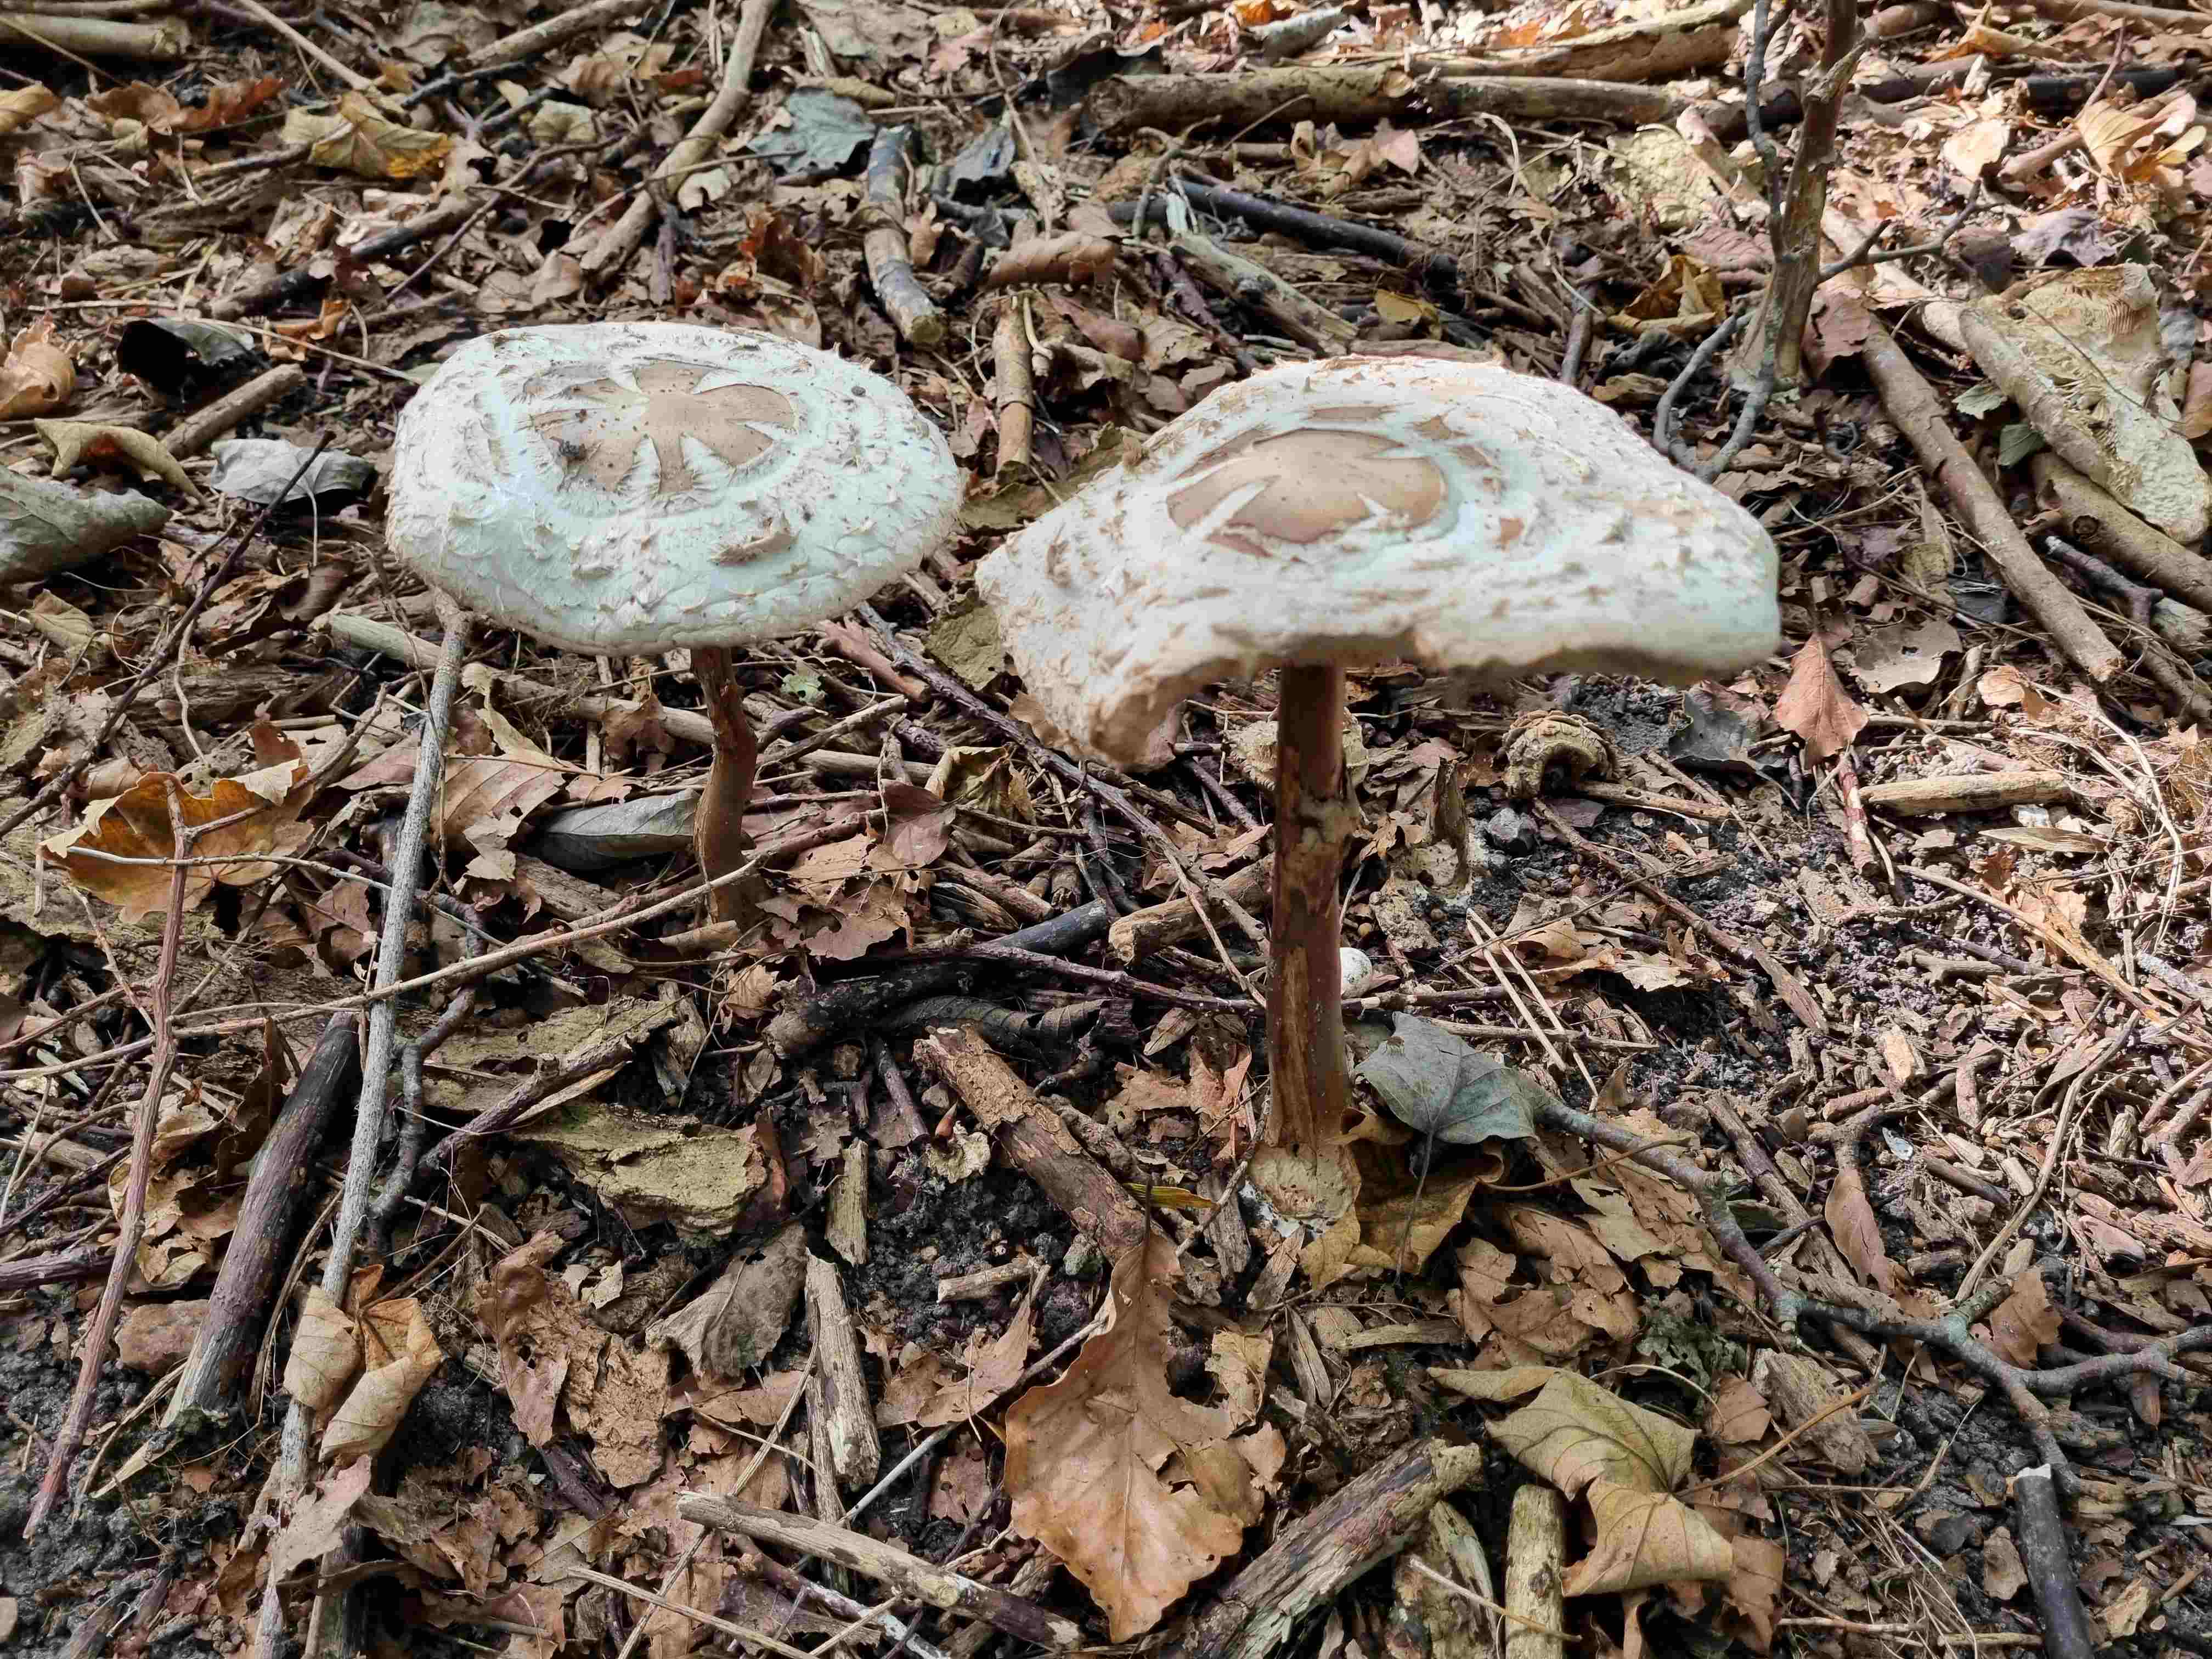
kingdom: Fungi
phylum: Basidiomycota
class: Agaricomycetes
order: Agaricales
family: Agaricaceae
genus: Chlorophyllum
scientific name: Chlorophyllum rhacodes
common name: ægte rabarberhat
